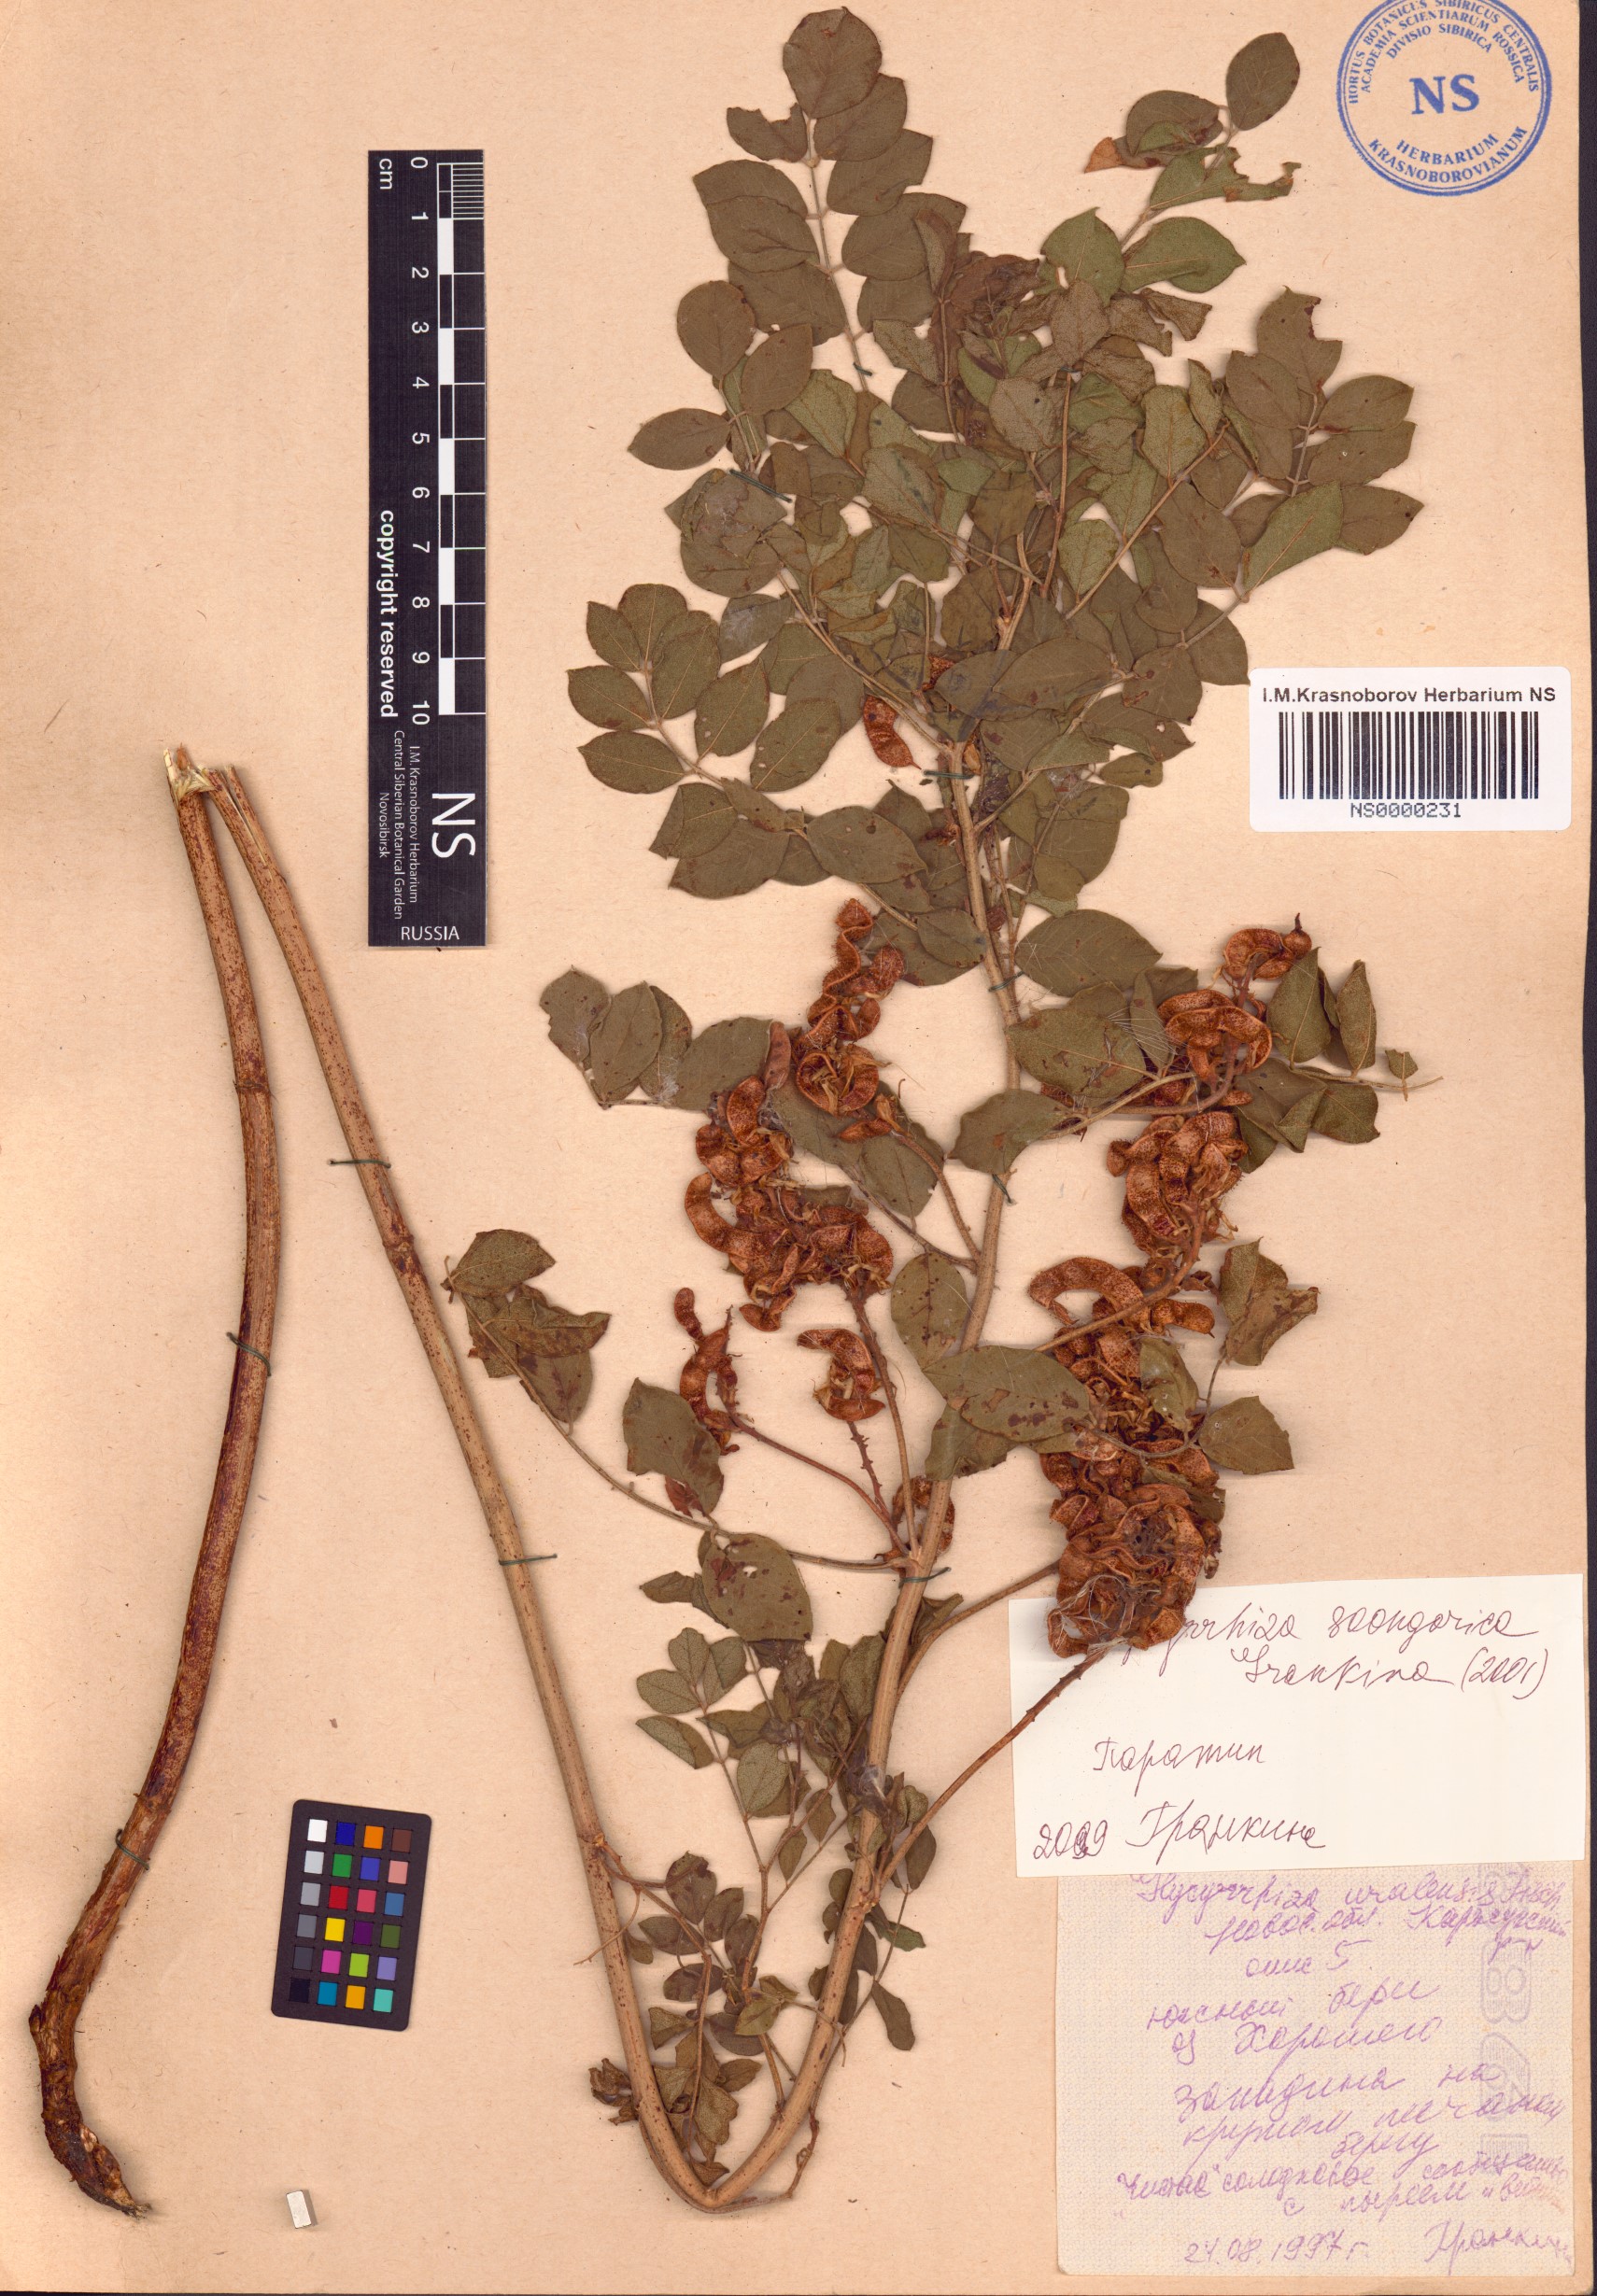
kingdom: Plantae
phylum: Tracheophyta
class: Magnoliopsida
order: Fabales
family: Fabaceae
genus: Glycyrrhiza
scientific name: Glycyrrhiza uralensis
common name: Chinese licorice
